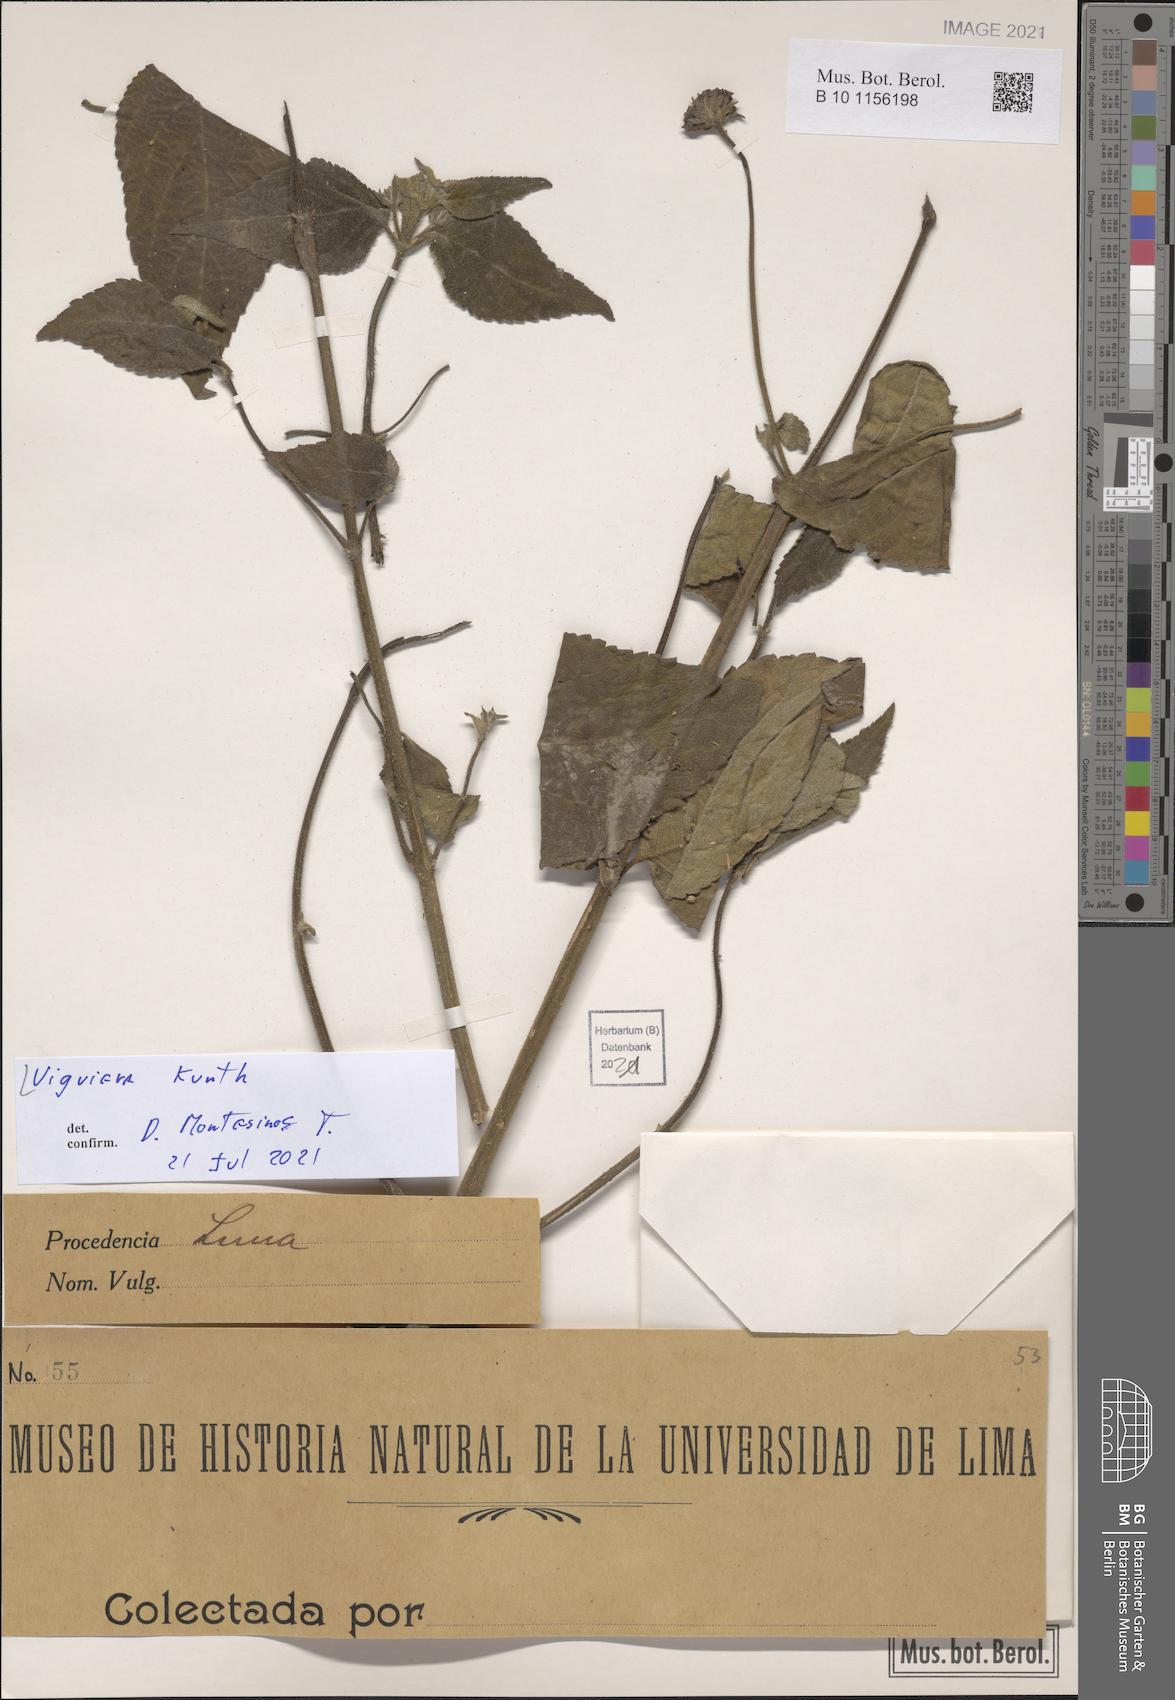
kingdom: Plantae
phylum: Tracheophyta
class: Magnoliopsida
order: Asterales
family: Asteraceae
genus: Viguiera
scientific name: Viguiera
